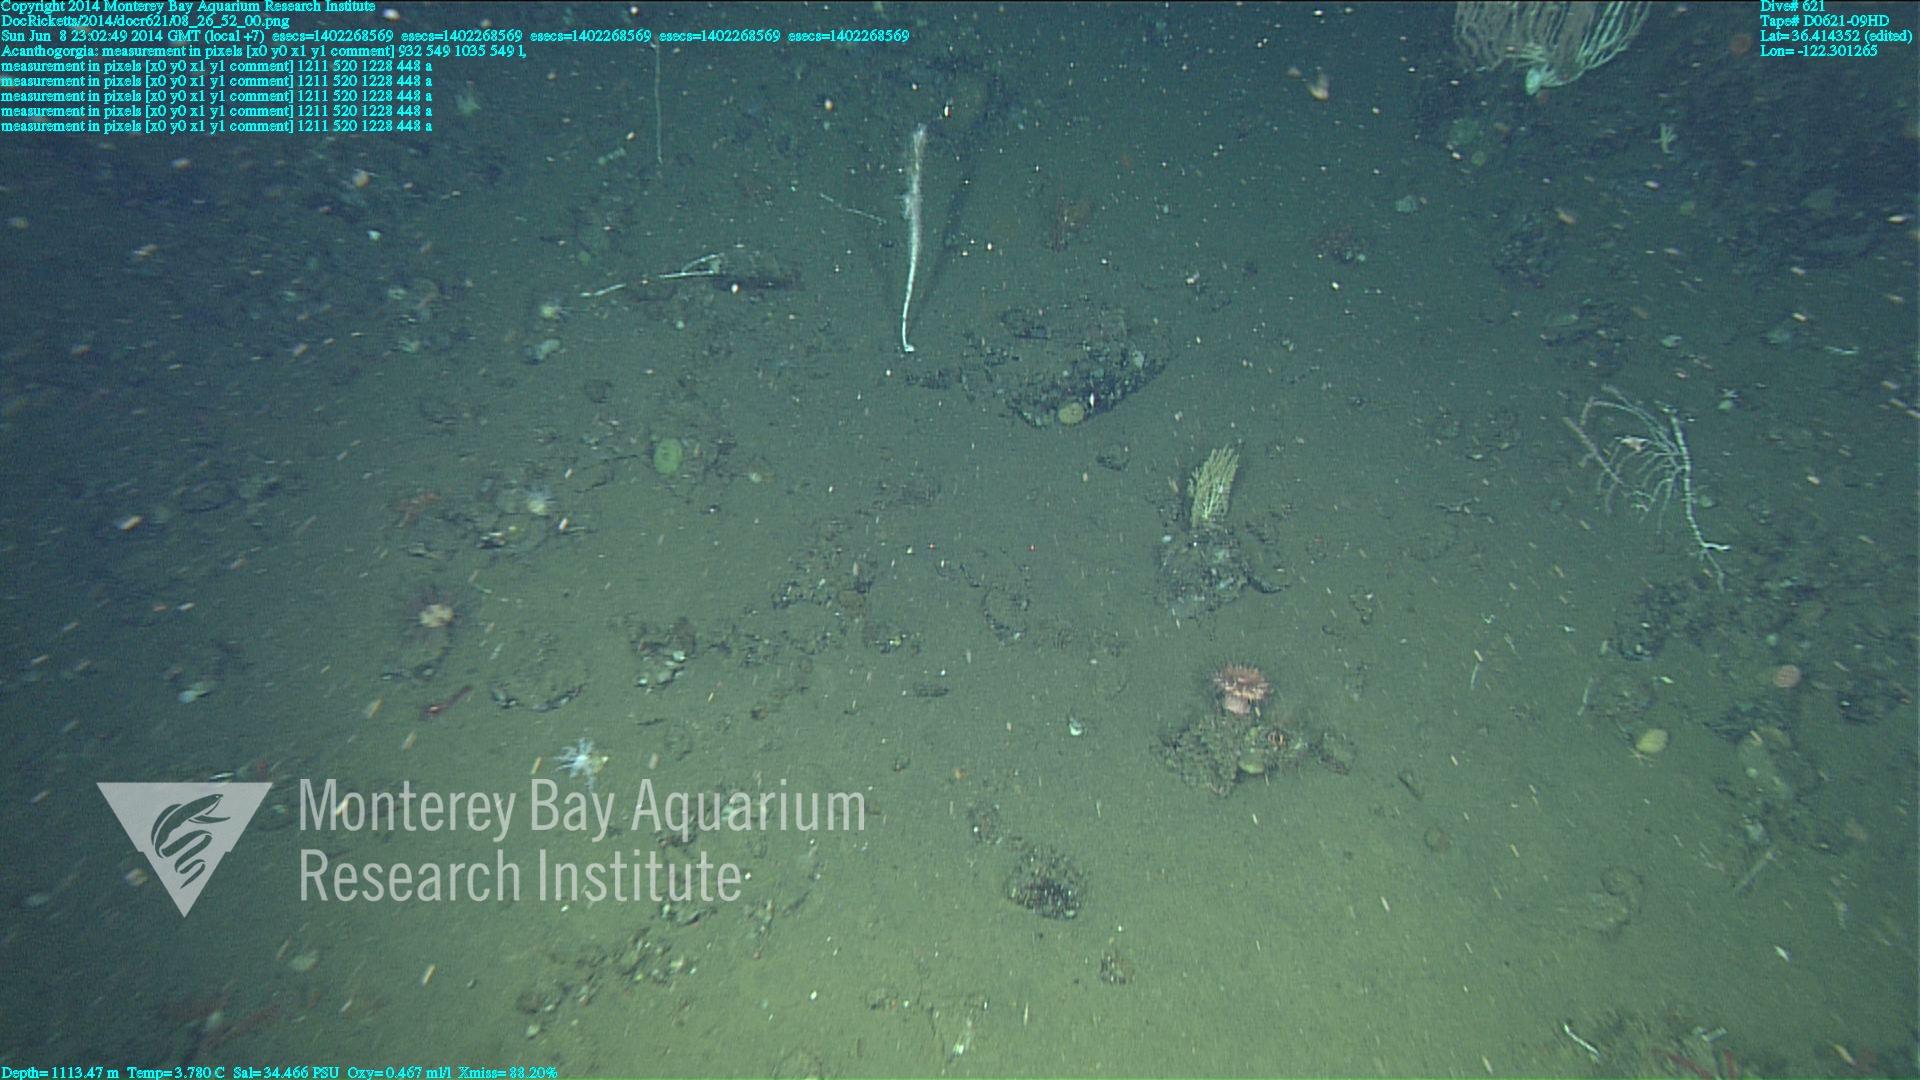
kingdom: Animalia
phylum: Cnidaria
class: Anthozoa
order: Malacalcyonacea
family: Paramuriceidae
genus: Acanthogorgia
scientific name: Acanthogorgia
